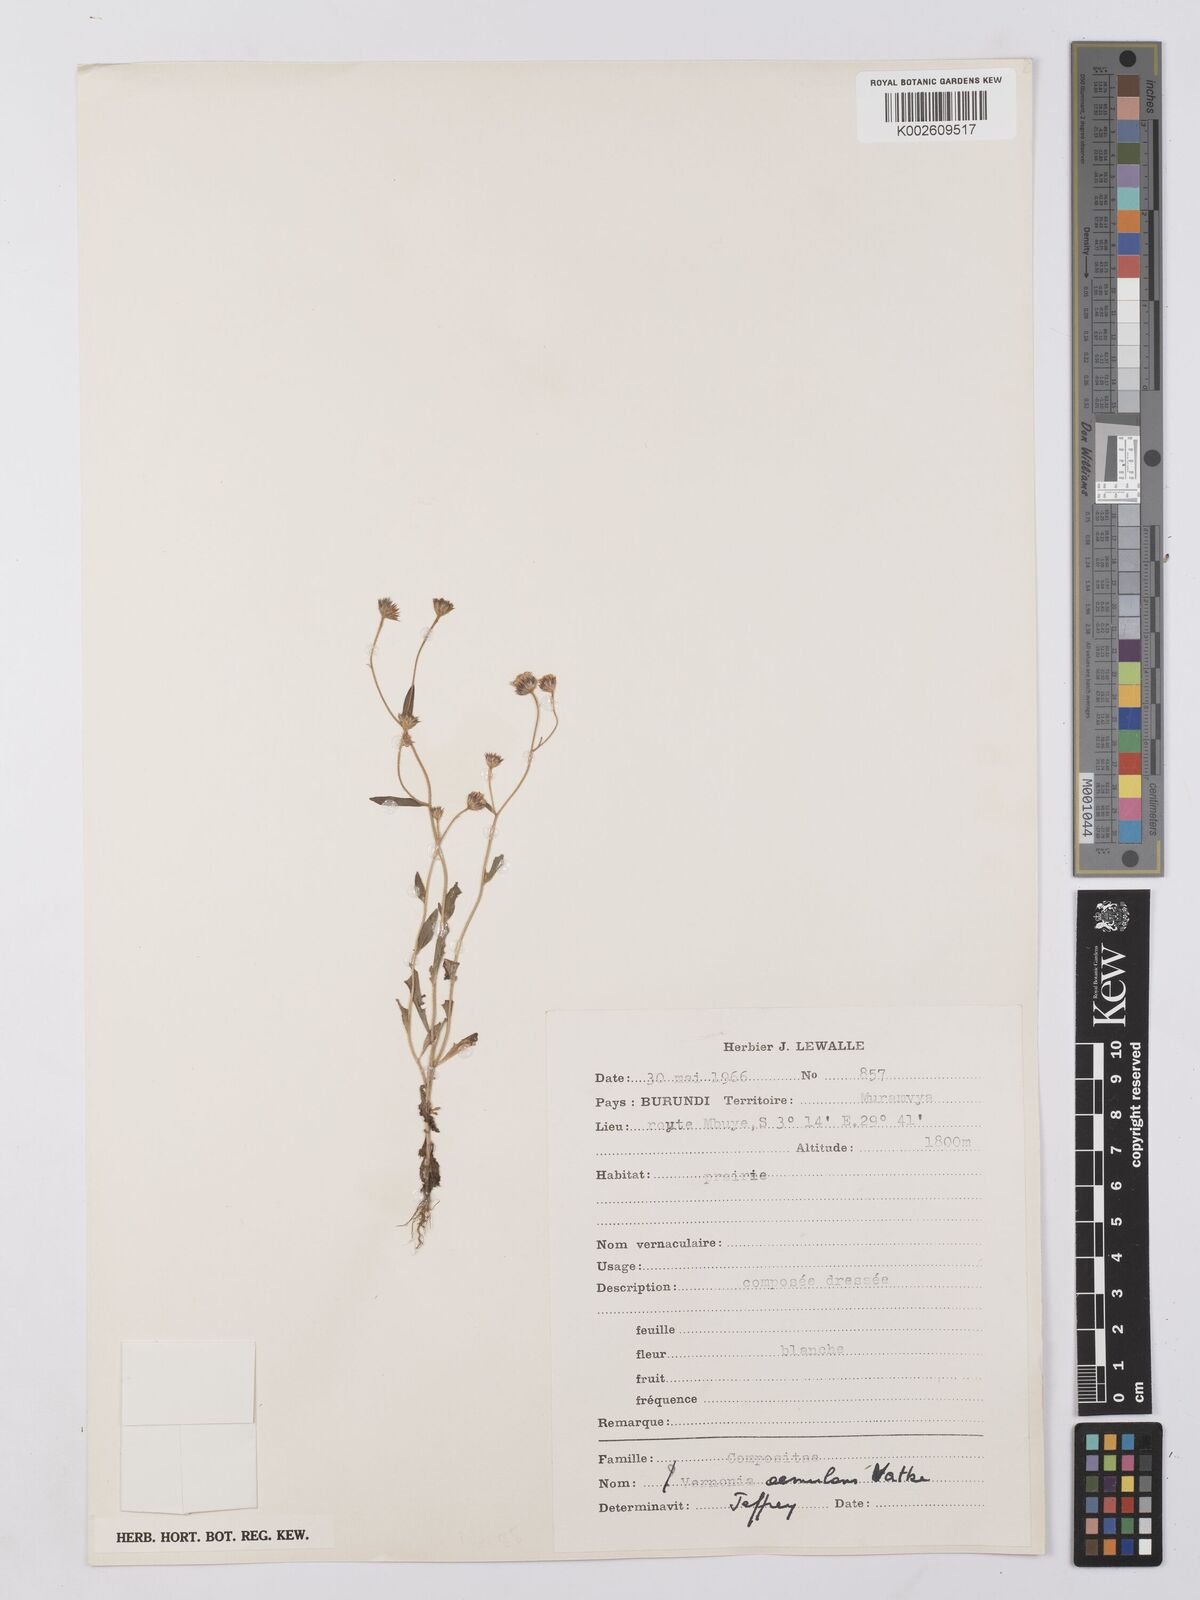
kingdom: Plantae
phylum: Tracheophyta
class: Magnoliopsida
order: Asterales
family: Asteraceae
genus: Vernonia
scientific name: Vernonia
